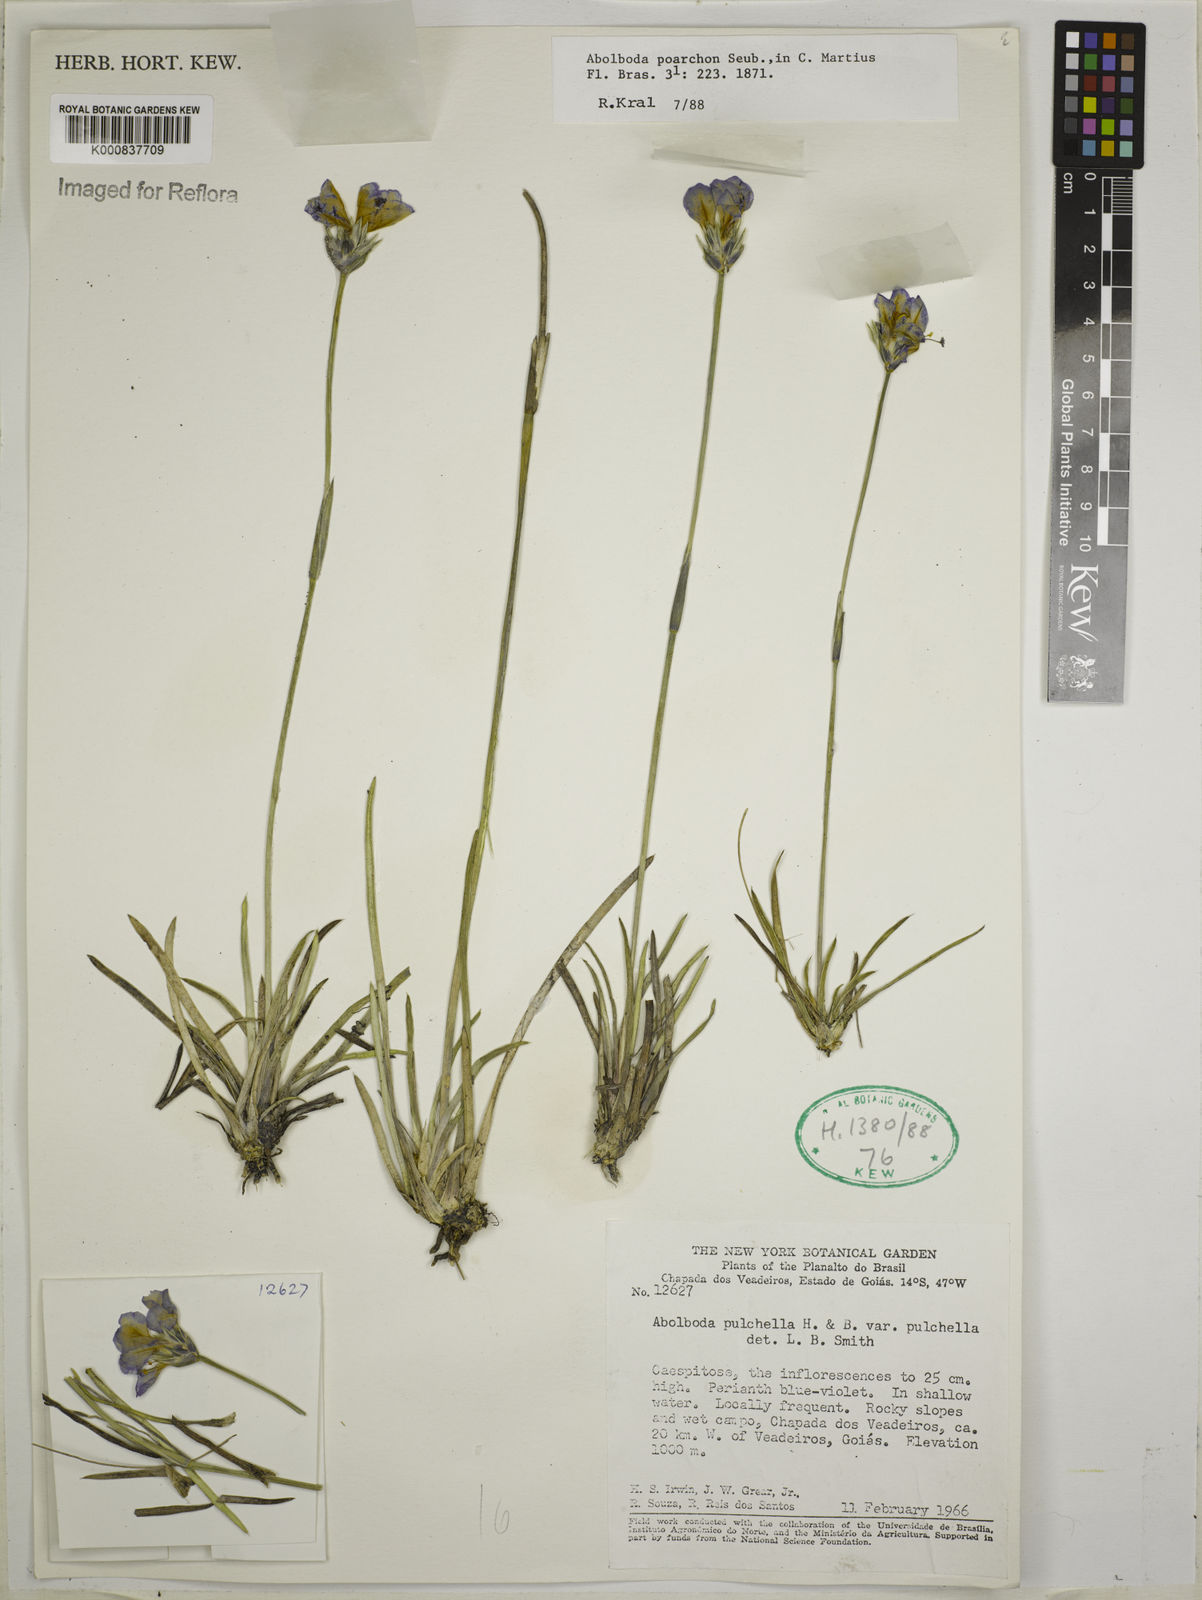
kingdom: Plantae
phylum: Tracheophyta
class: Liliopsida
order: Poales
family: Xyridaceae
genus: Abolboda
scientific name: Abolboda poarchon
